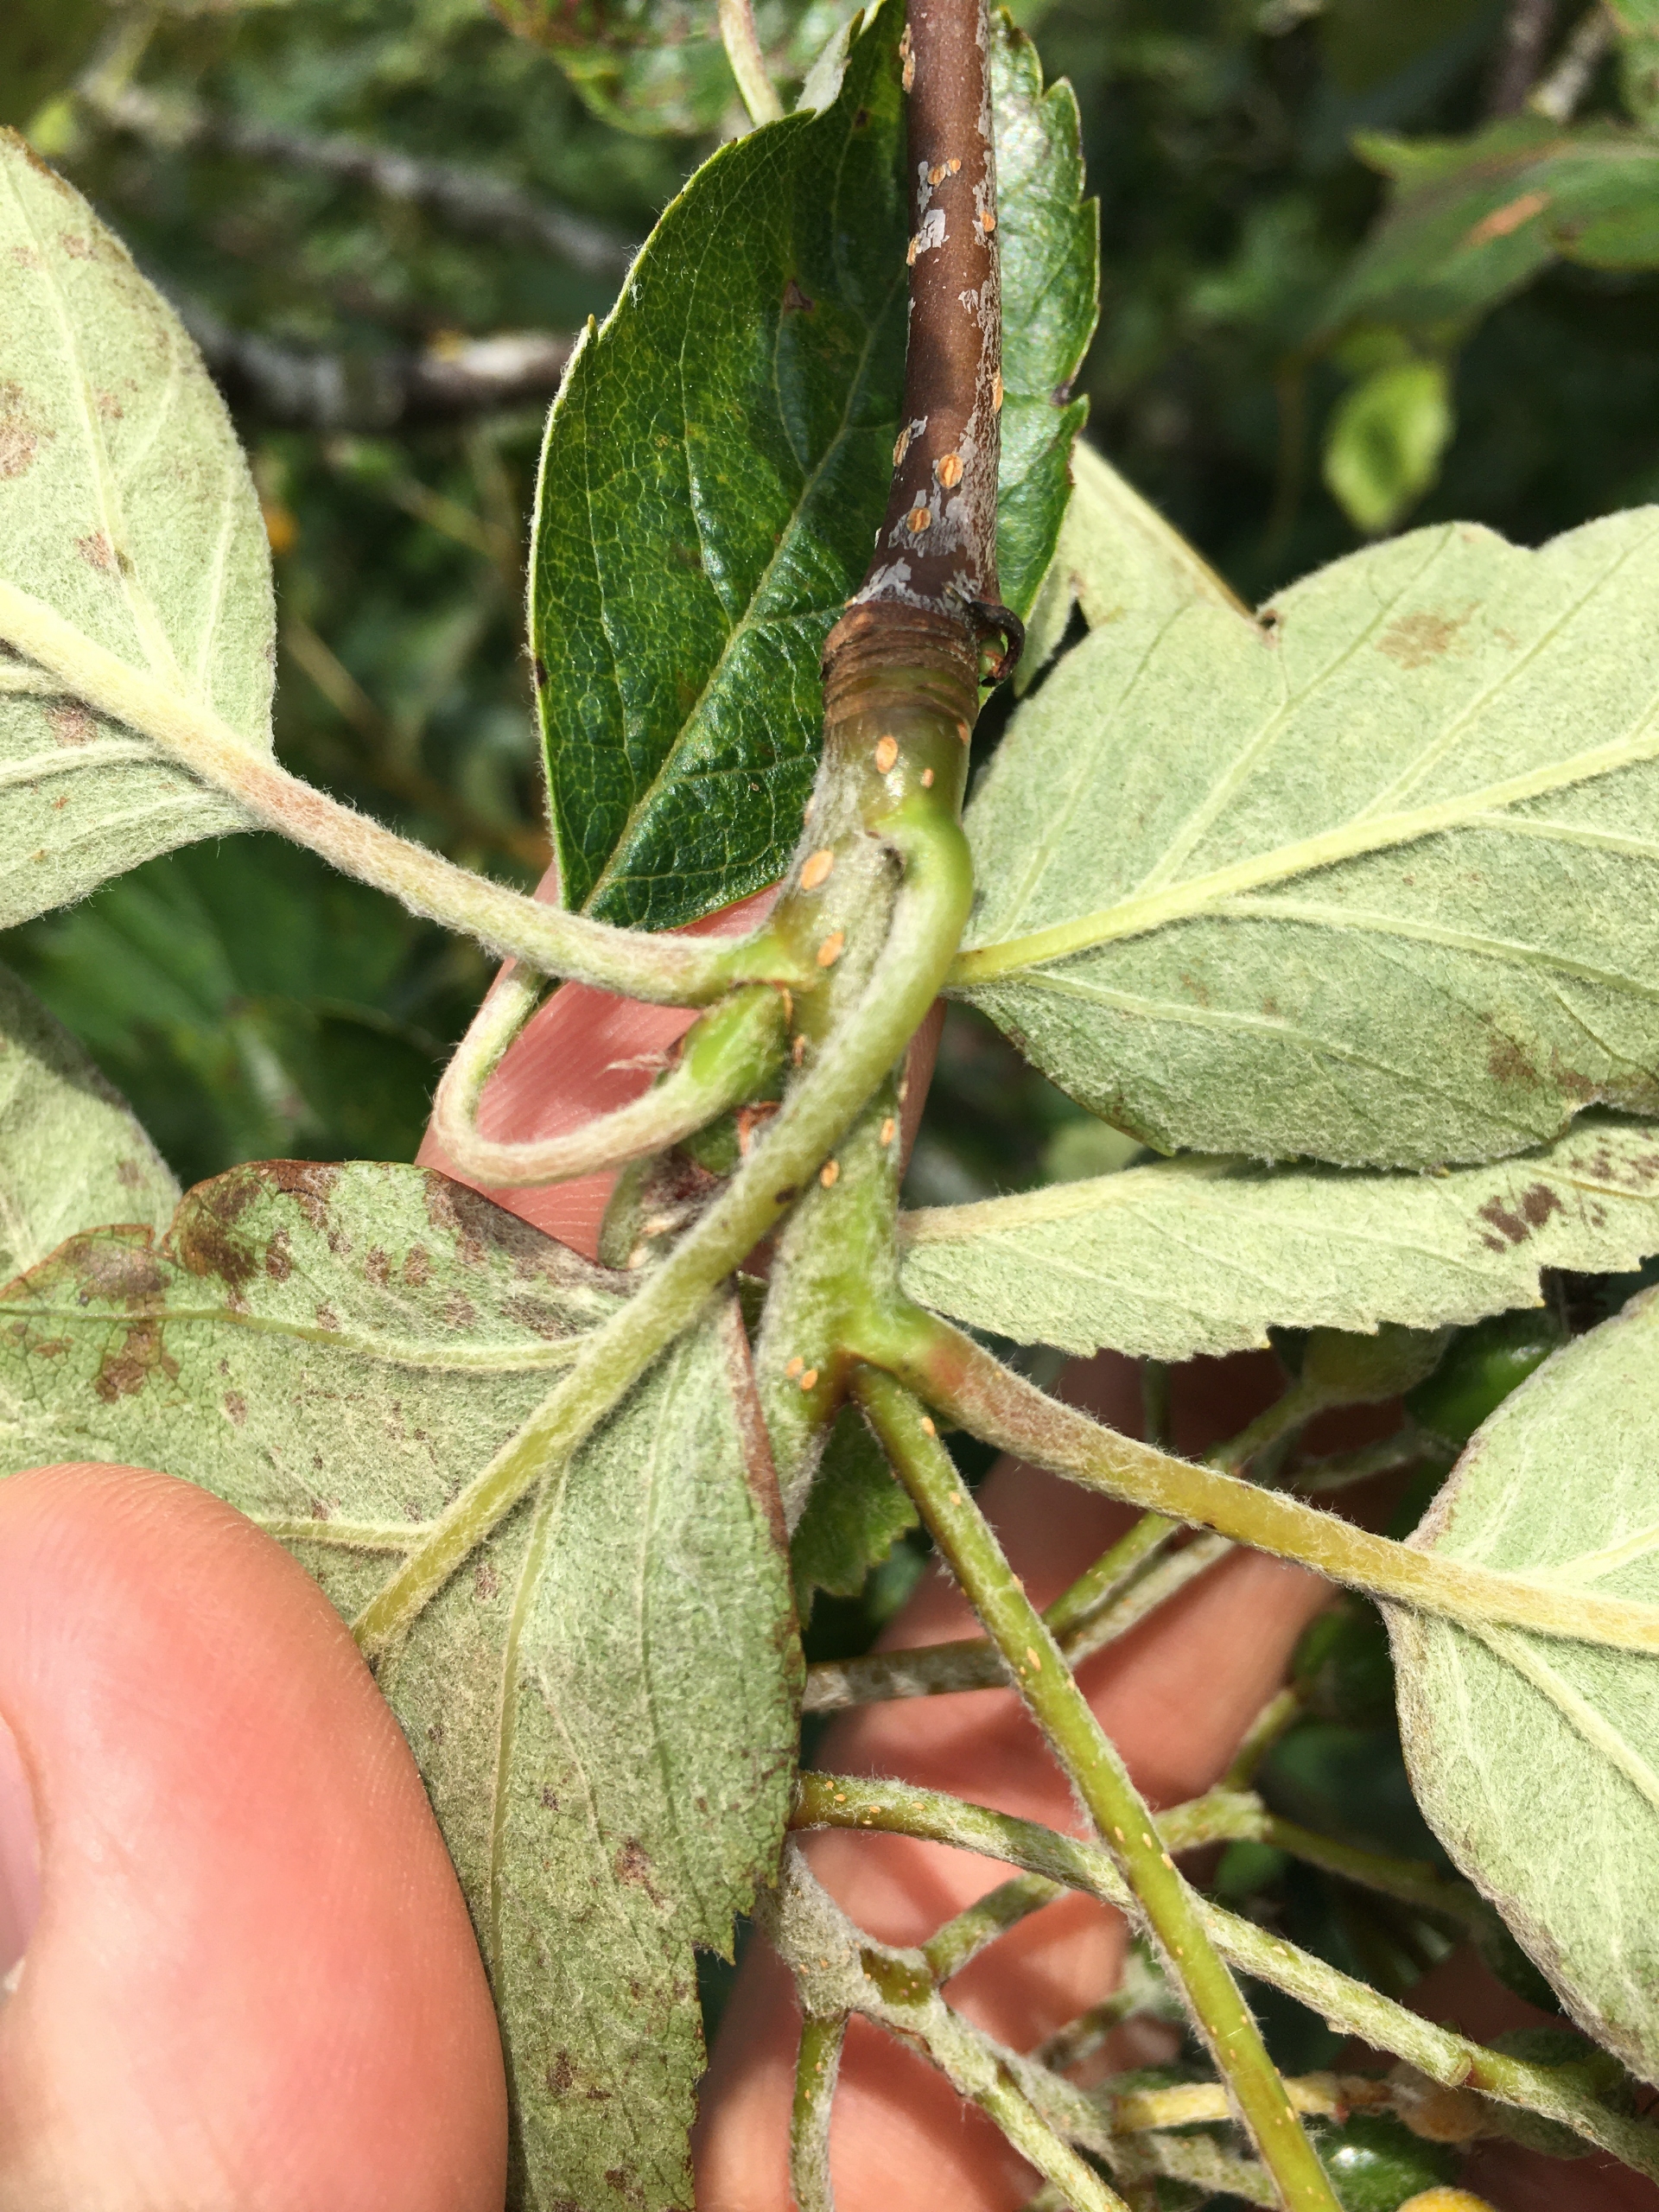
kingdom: Plantae
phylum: Tracheophyta
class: Magnoliopsida
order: Rosales
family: Rosaceae
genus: Scandosorbus
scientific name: Scandosorbus intermedia
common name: Selje-røn
